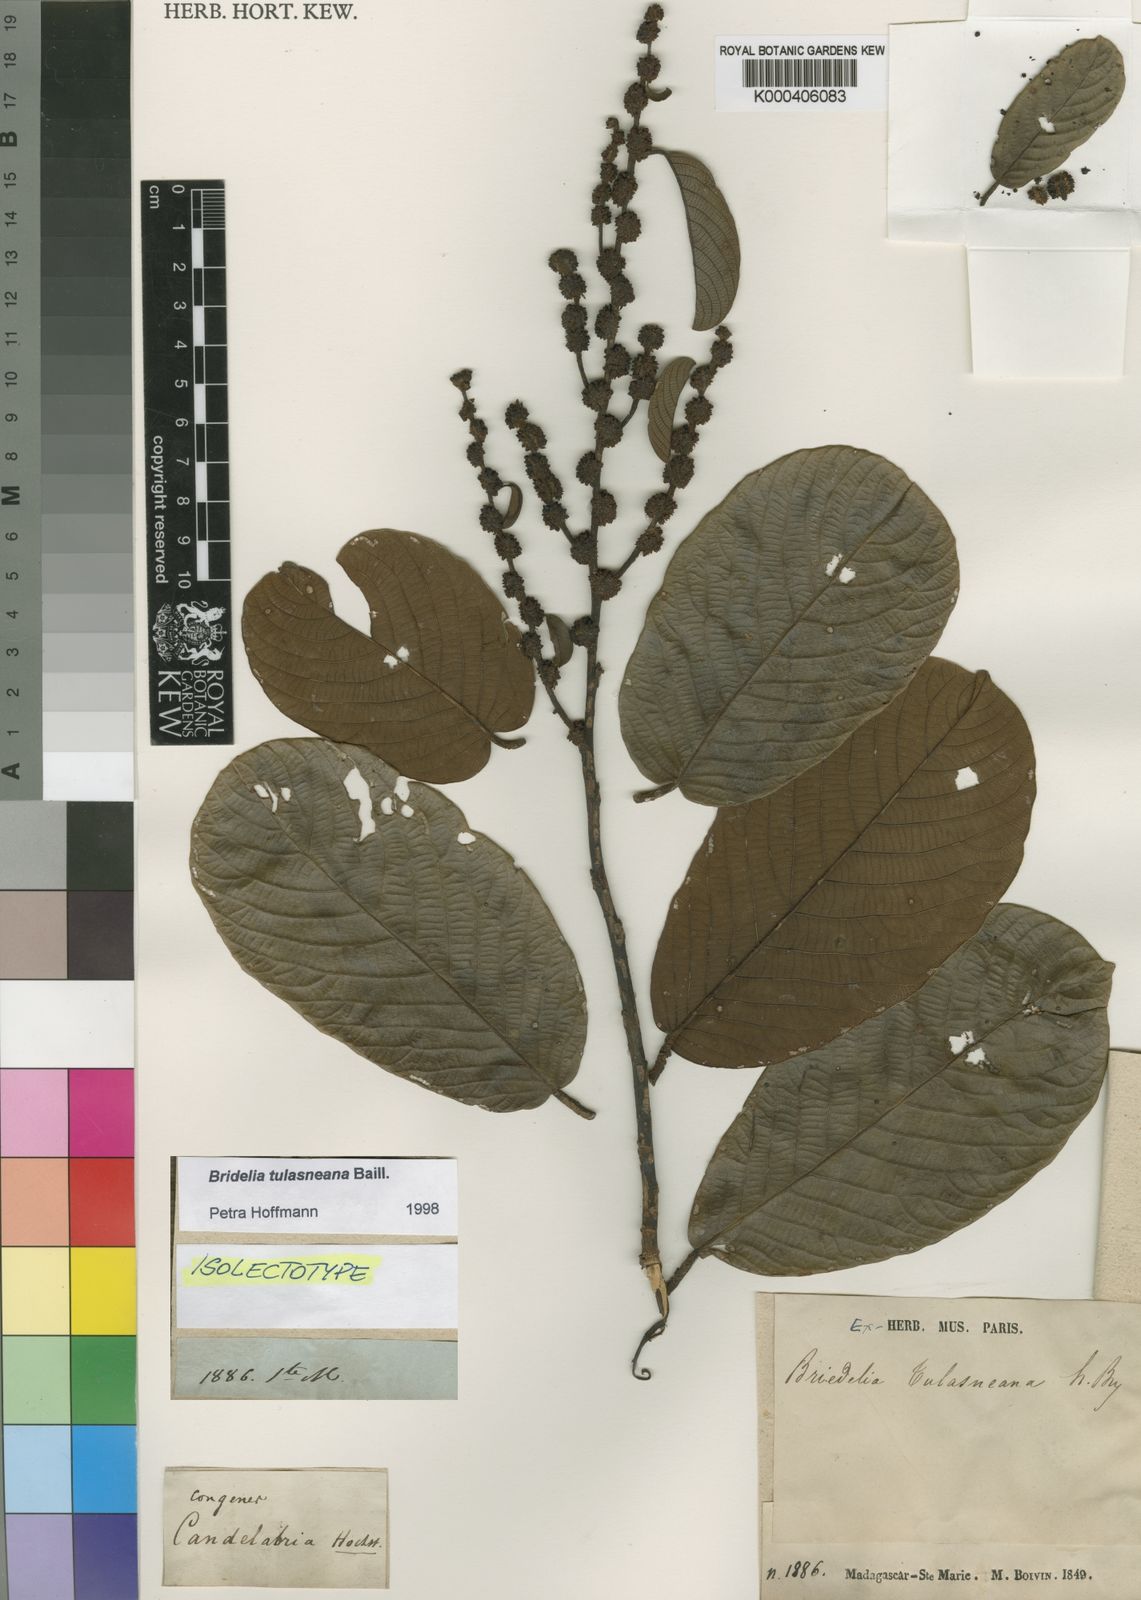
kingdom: Plantae
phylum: Tracheophyta
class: Magnoliopsida
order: Malpighiales
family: Phyllanthaceae
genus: Bridelia
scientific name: Bridelia tulasneana
